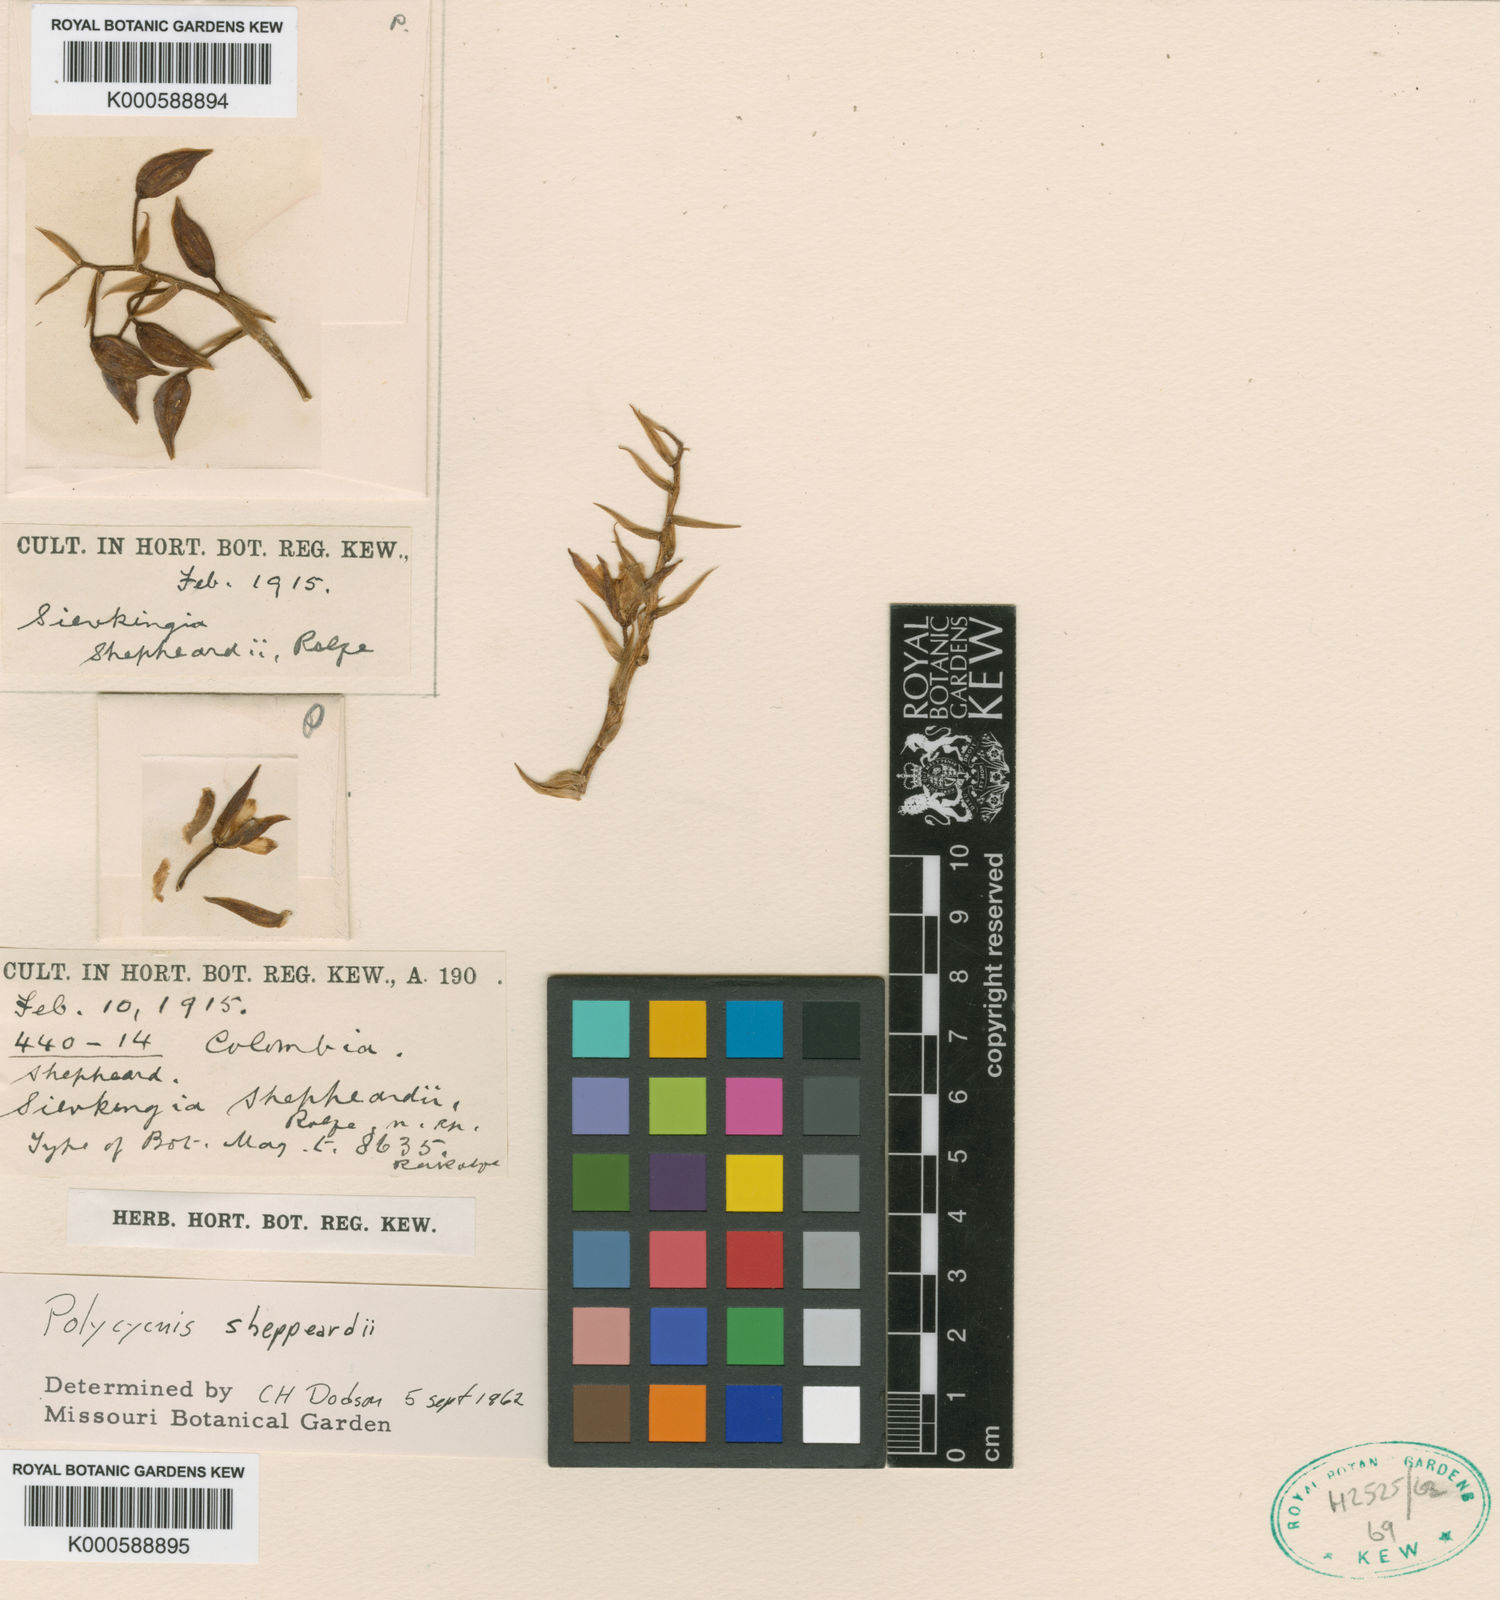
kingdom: Plantae
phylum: Tracheophyta
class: Liliopsida
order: Asparagales
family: Orchidaceae
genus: Soterosanthus
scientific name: Soterosanthus shepheardii
